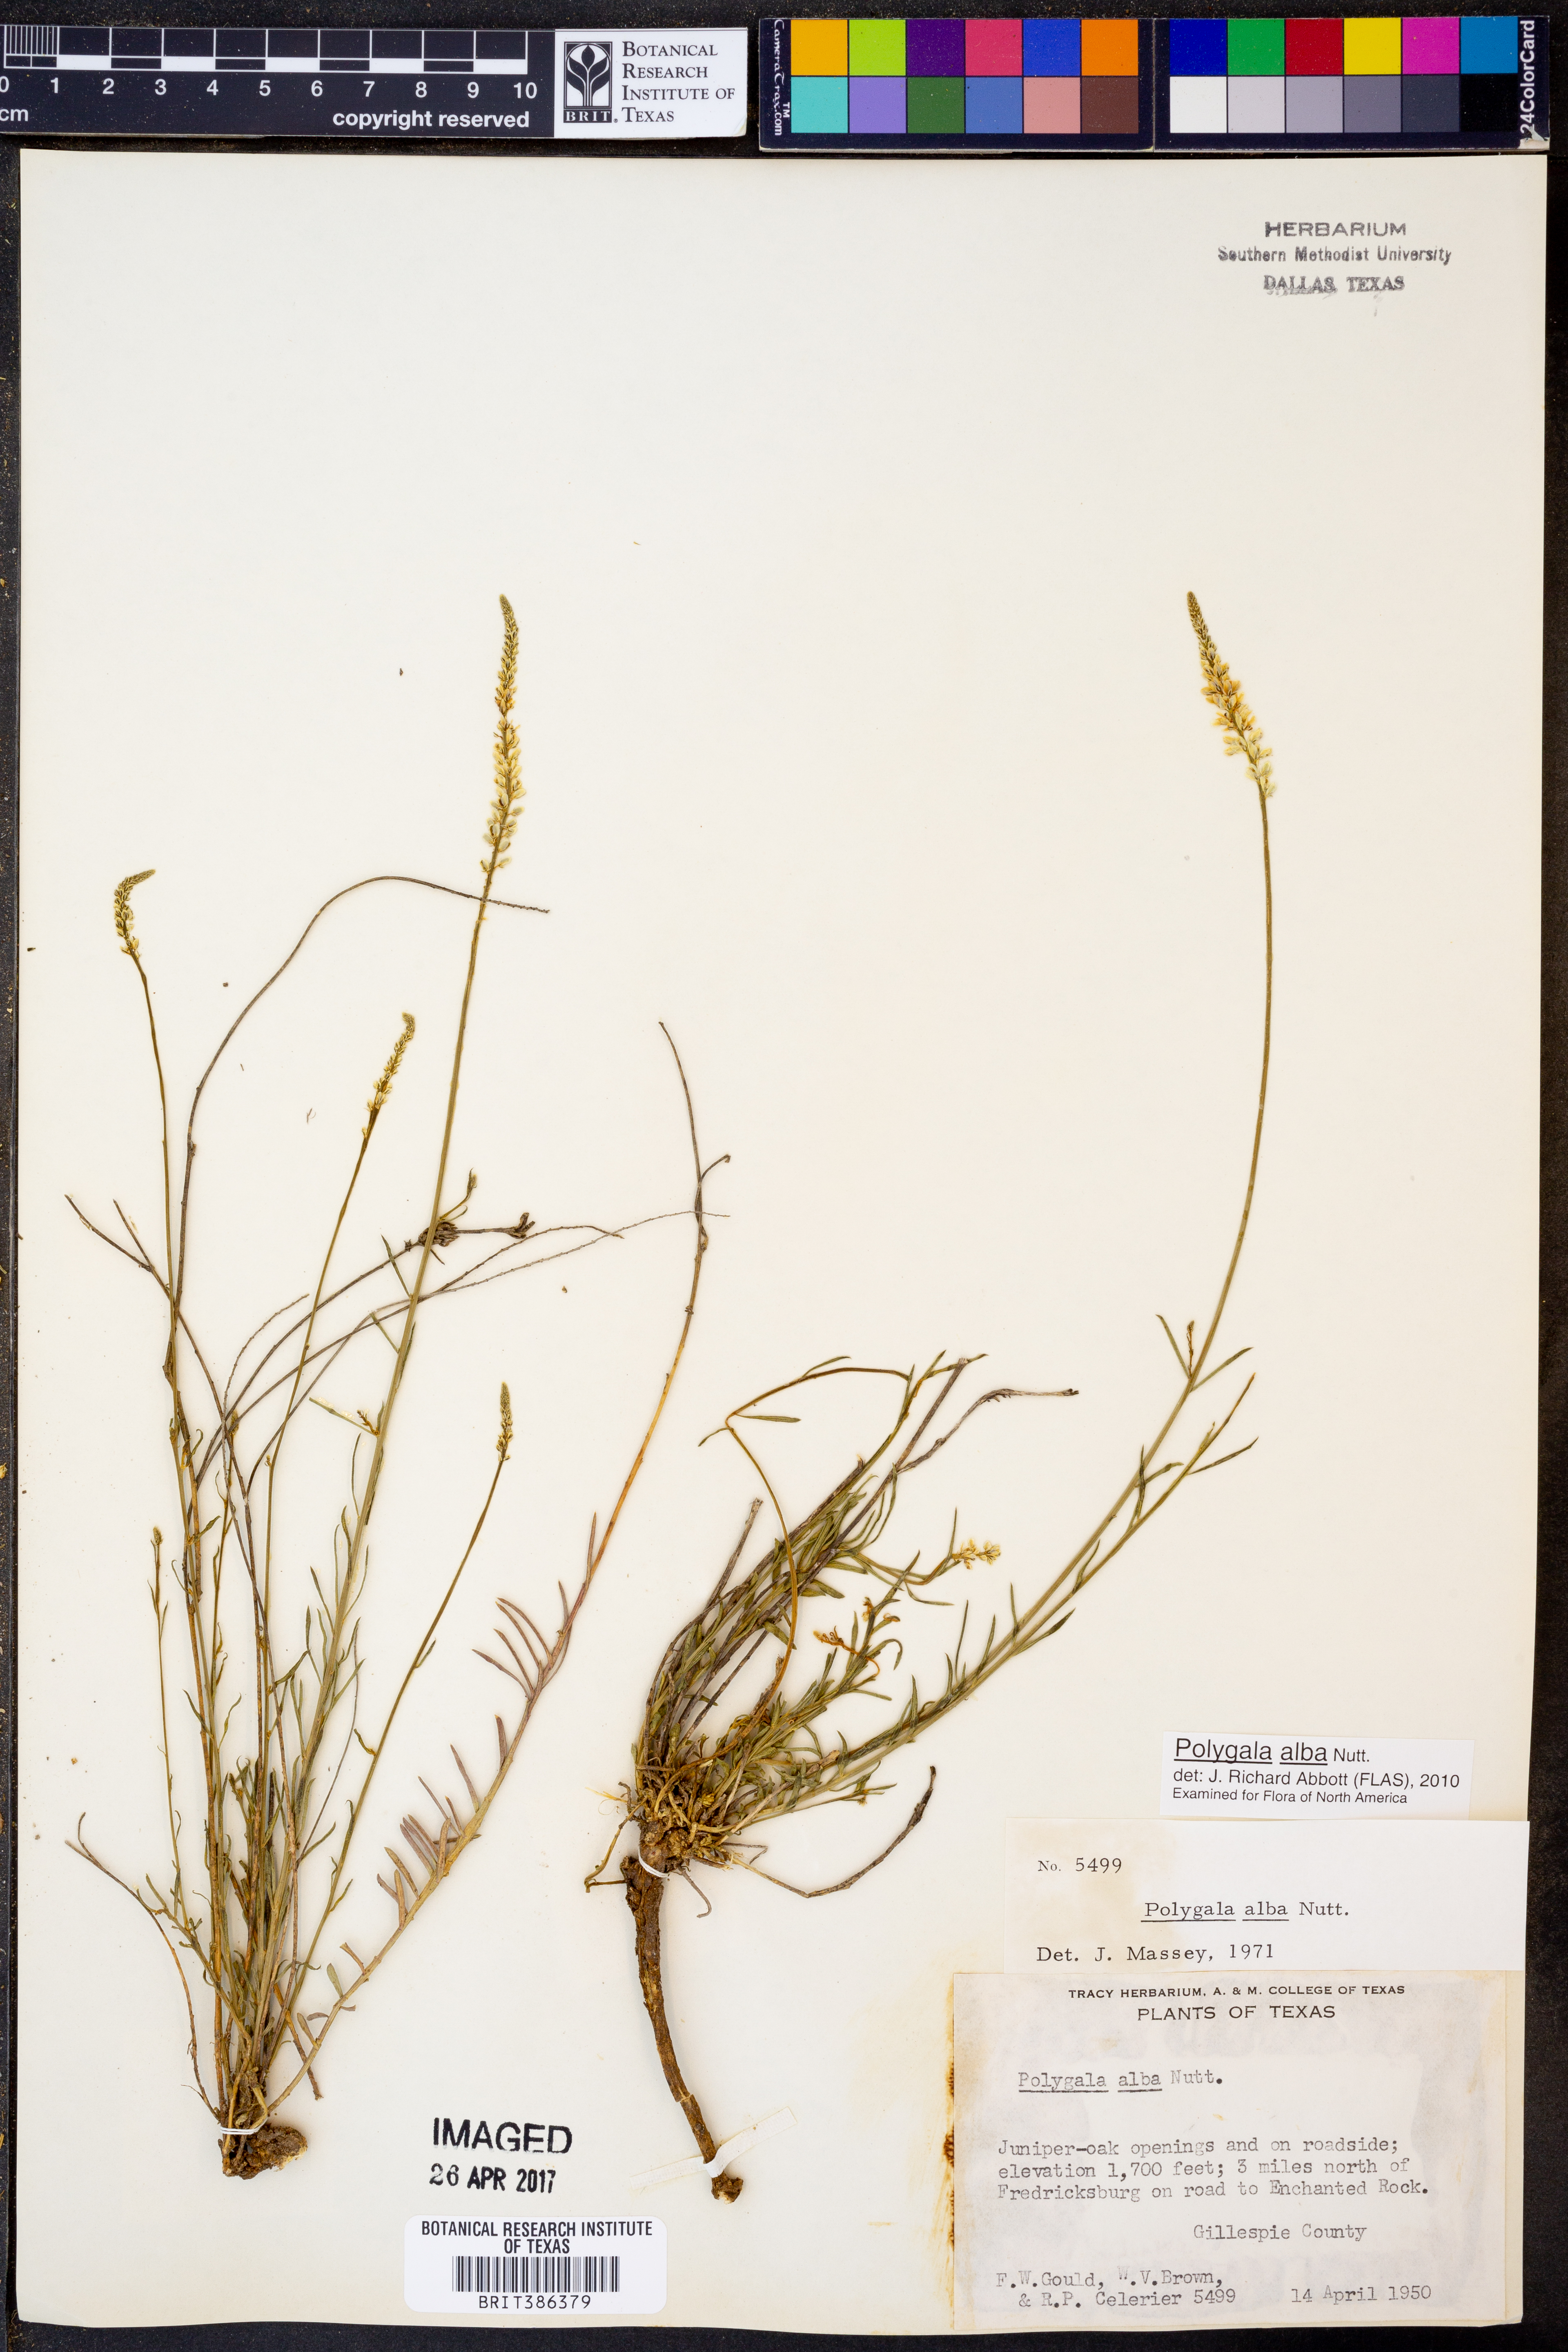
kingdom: Plantae
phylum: Tracheophyta
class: Magnoliopsida
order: Fabales
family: Polygalaceae
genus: Polygala
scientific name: Polygala alba
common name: White milkwort
